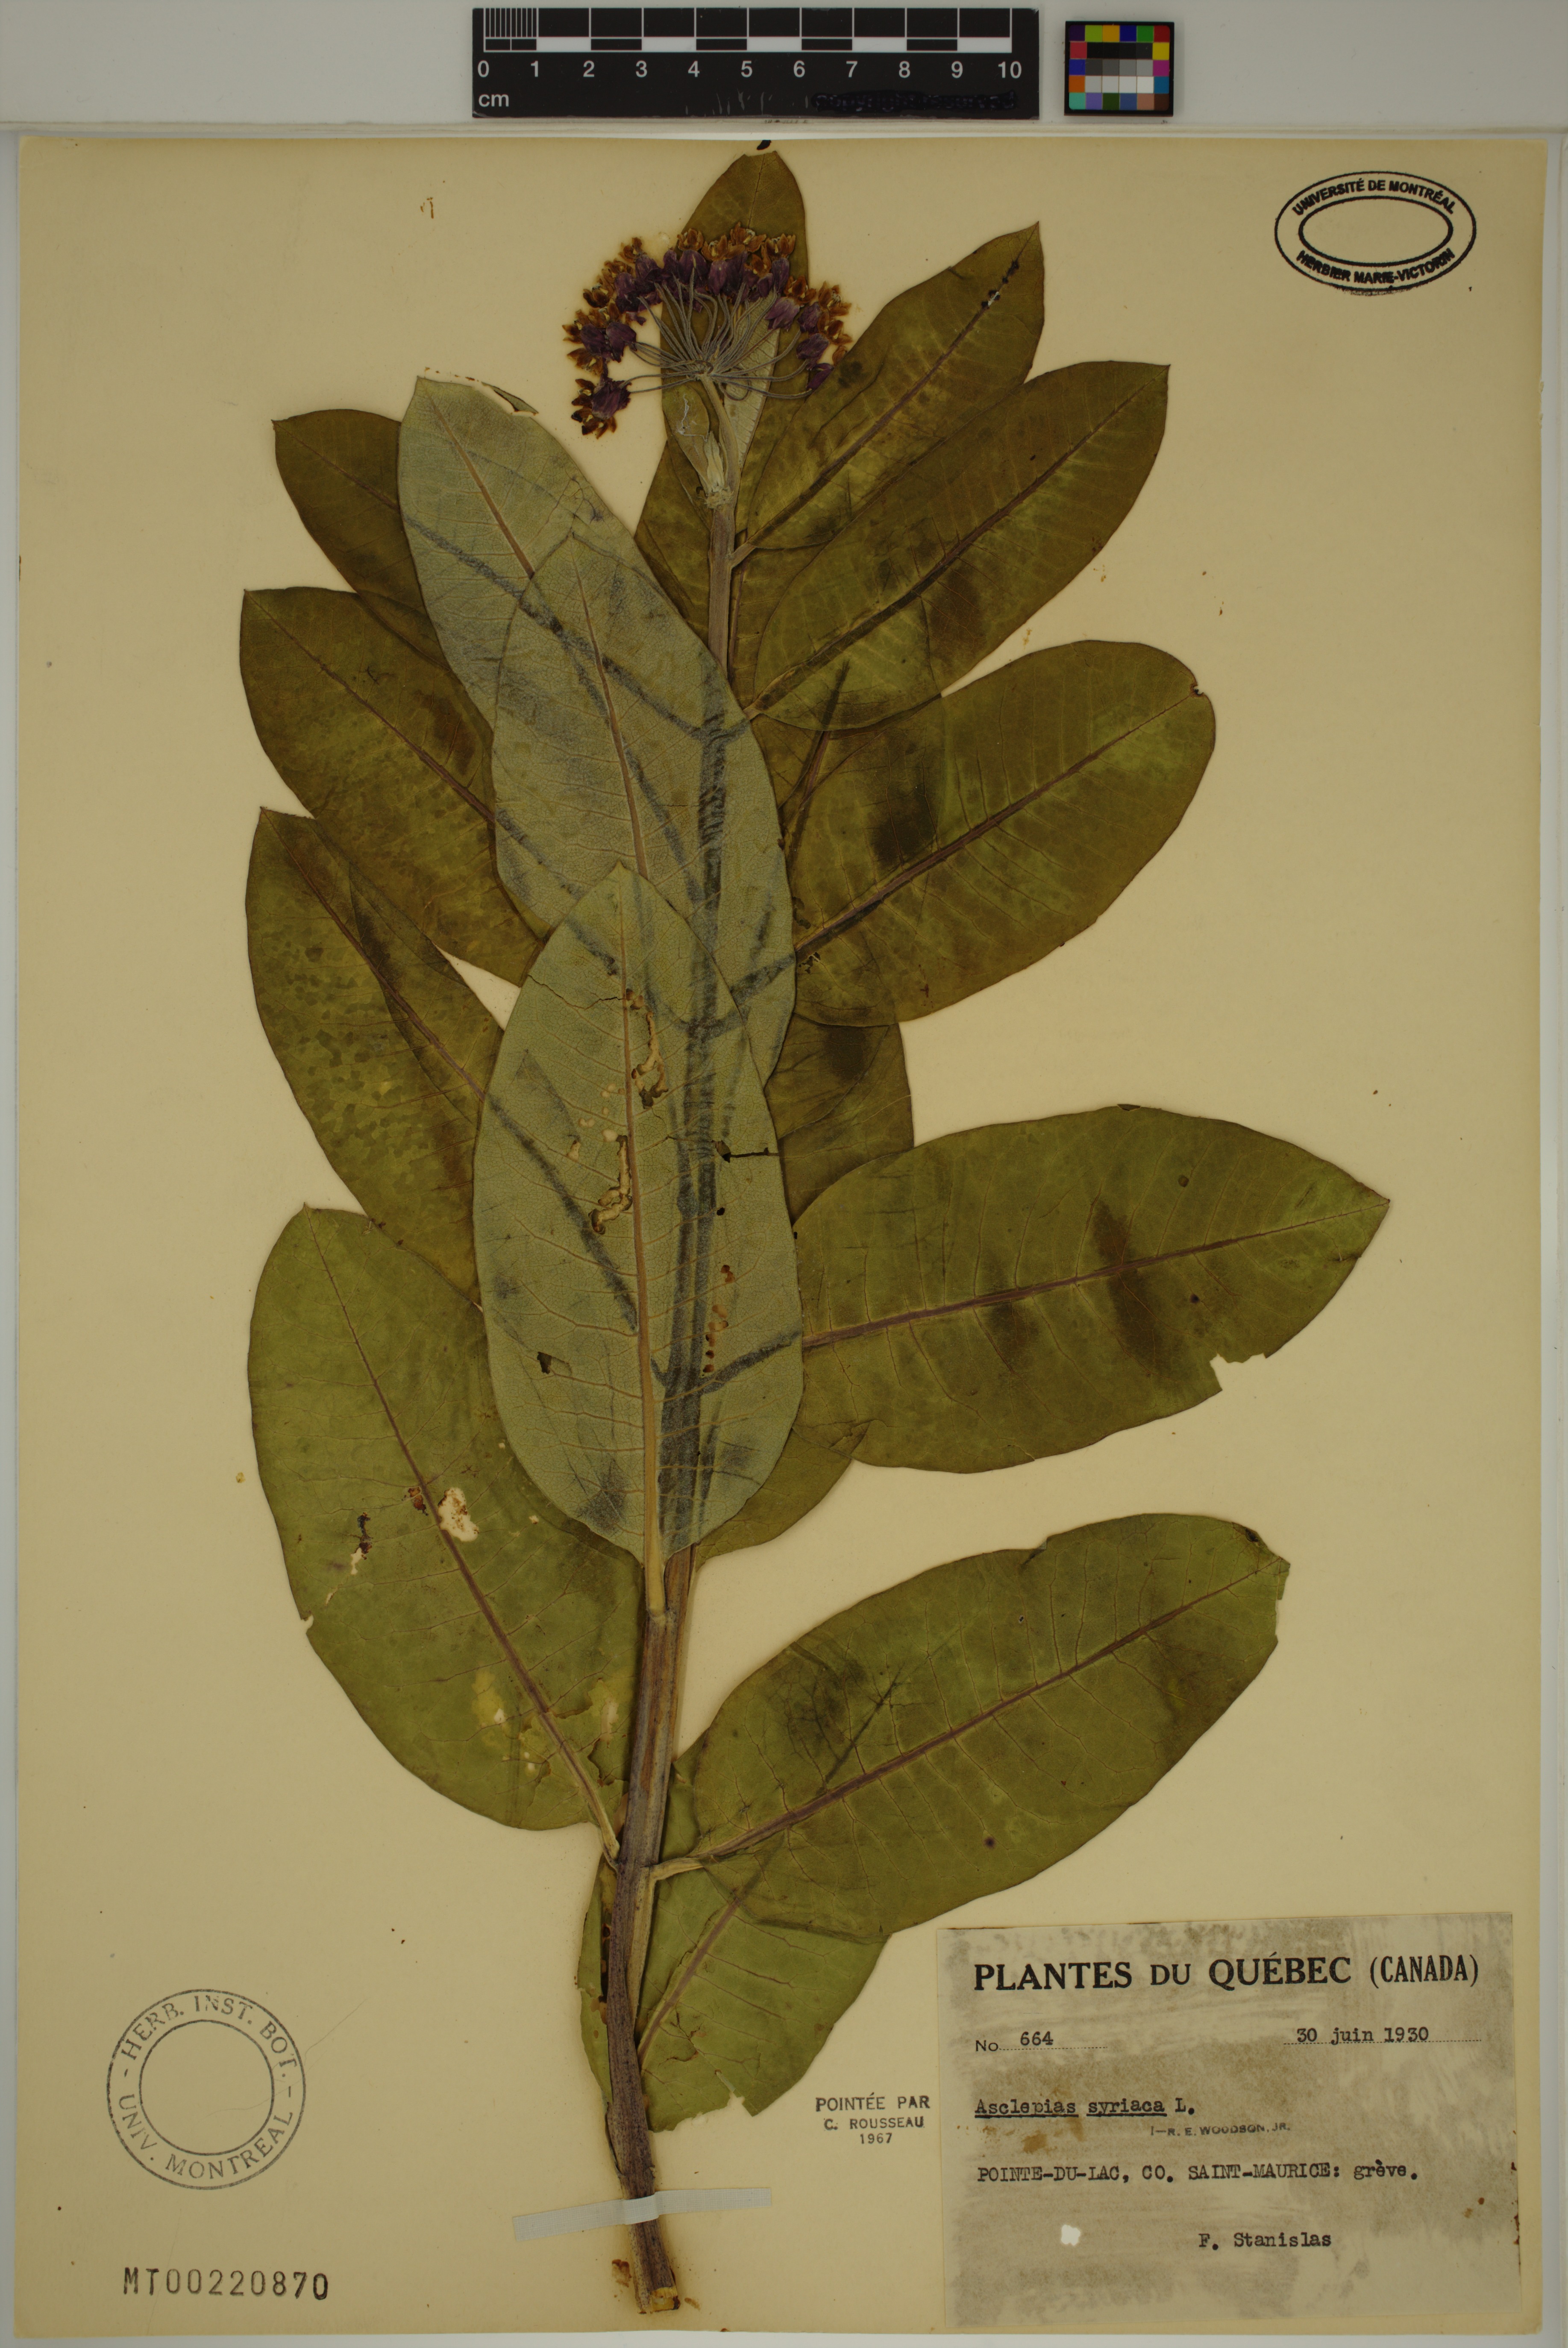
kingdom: Plantae
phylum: Tracheophyta
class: Magnoliopsida
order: Gentianales
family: Apocynaceae
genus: Asclepias
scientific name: Asclepias syriaca
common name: Common milkweed
